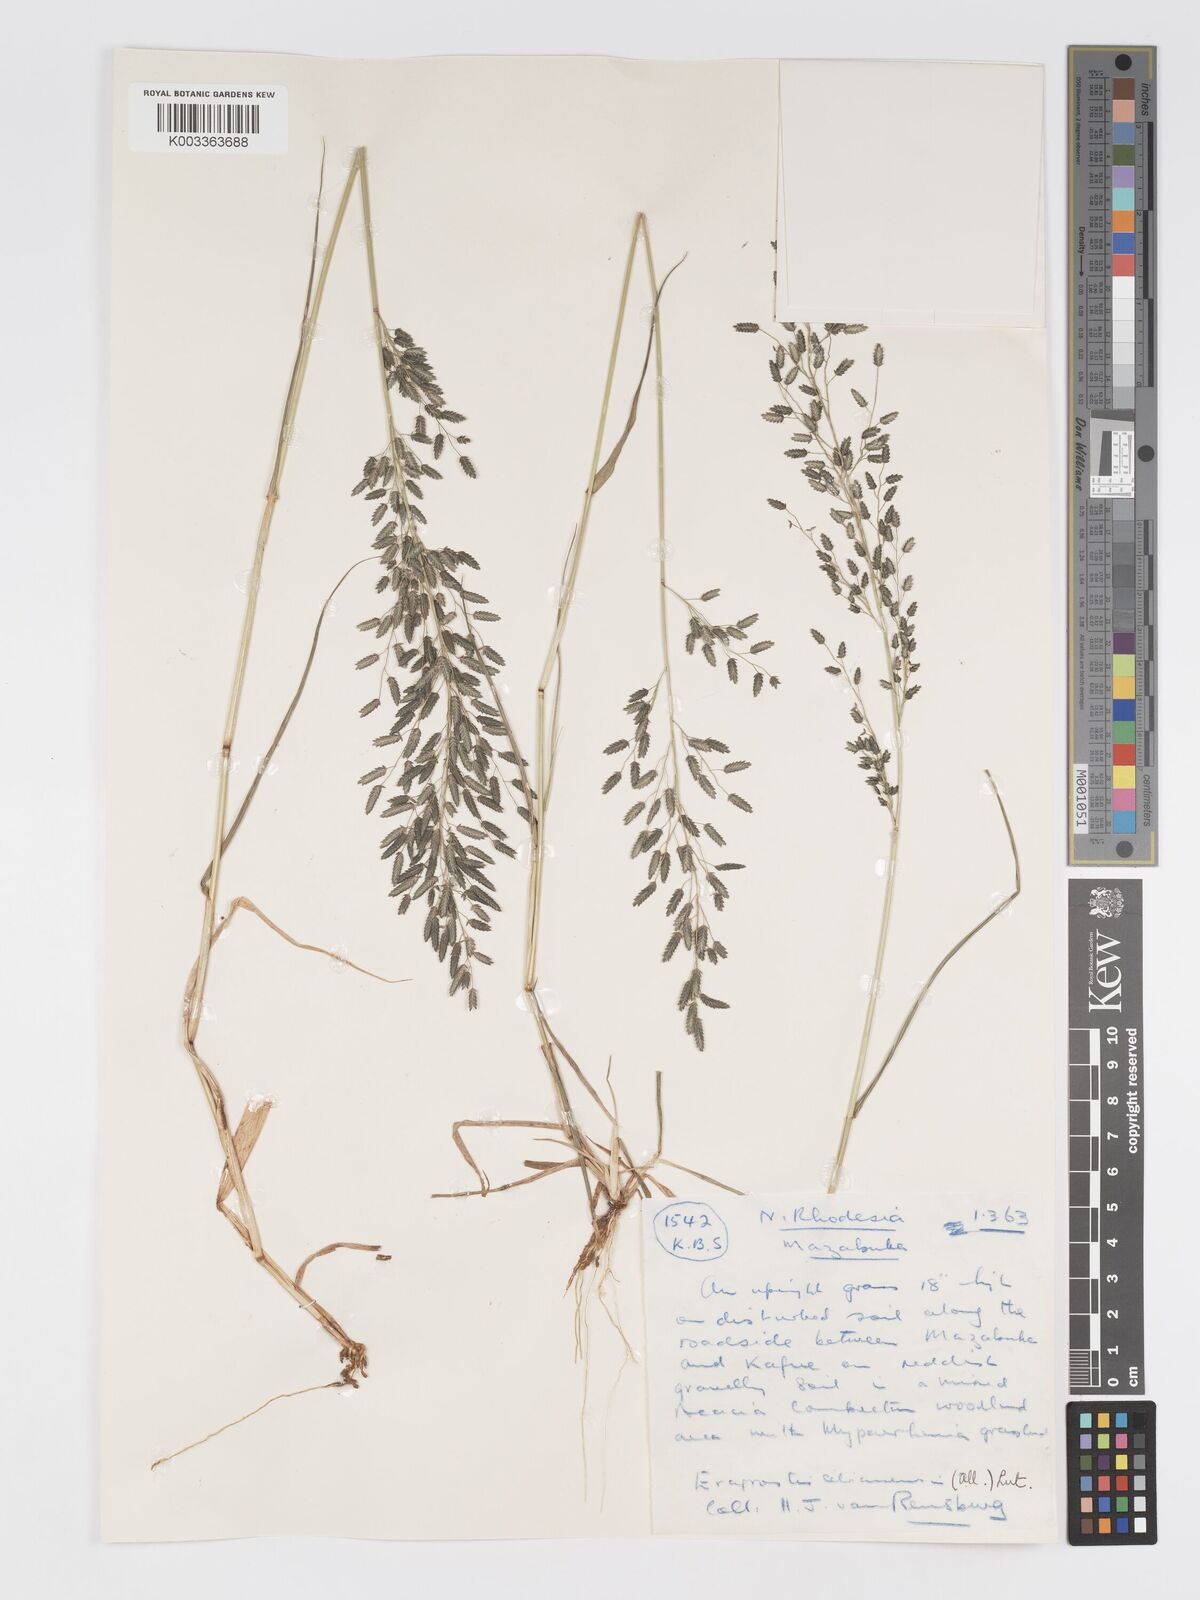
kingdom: Plantae
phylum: Tracheophyta
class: Liliopsida
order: Poales
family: Poaceae
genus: Eragrostis
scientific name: Eragrostis cilianensis
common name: Stinkgrass
